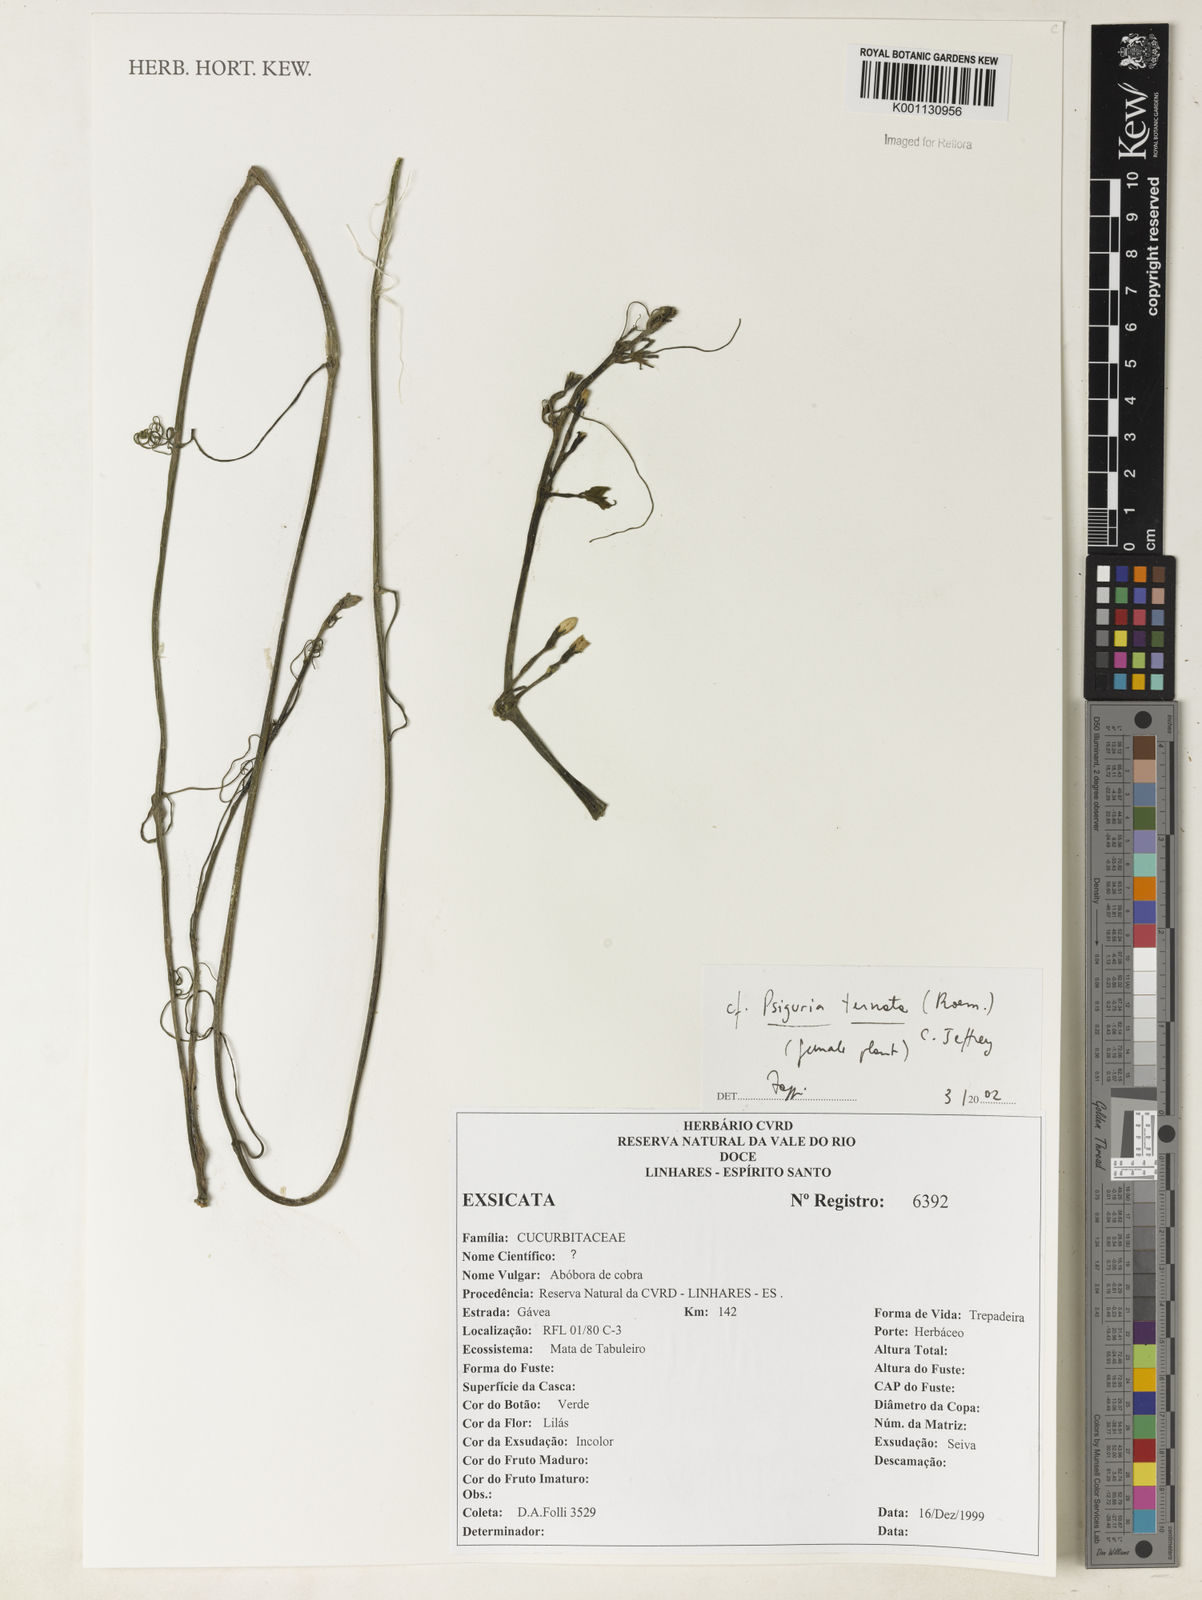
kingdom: Plantae
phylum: Tracheophyta
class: Magnoliopsida
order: Cucurbitales
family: Cucurbitaceae
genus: Psiguria
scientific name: Psiguria ternata
